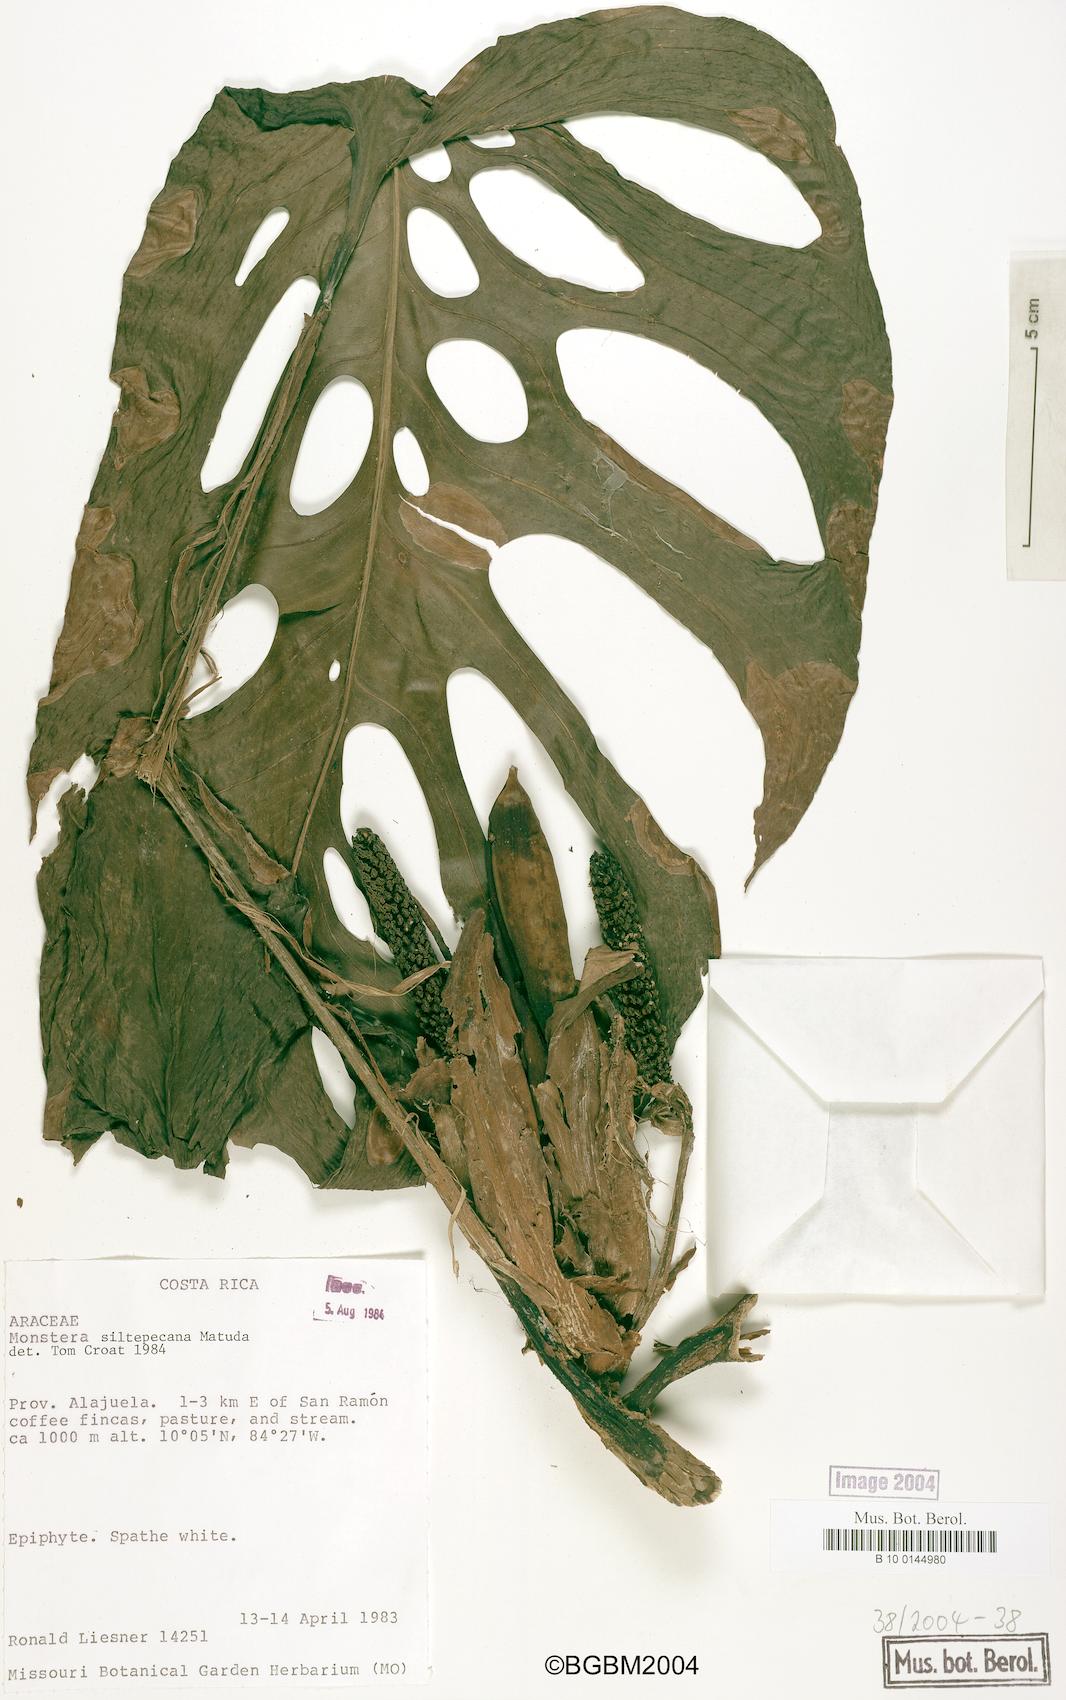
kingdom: Plantae
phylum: Tracheophyta
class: Liliopsida
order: Alismatales
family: Araceae
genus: Monstera
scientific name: Monstera siltepecana
